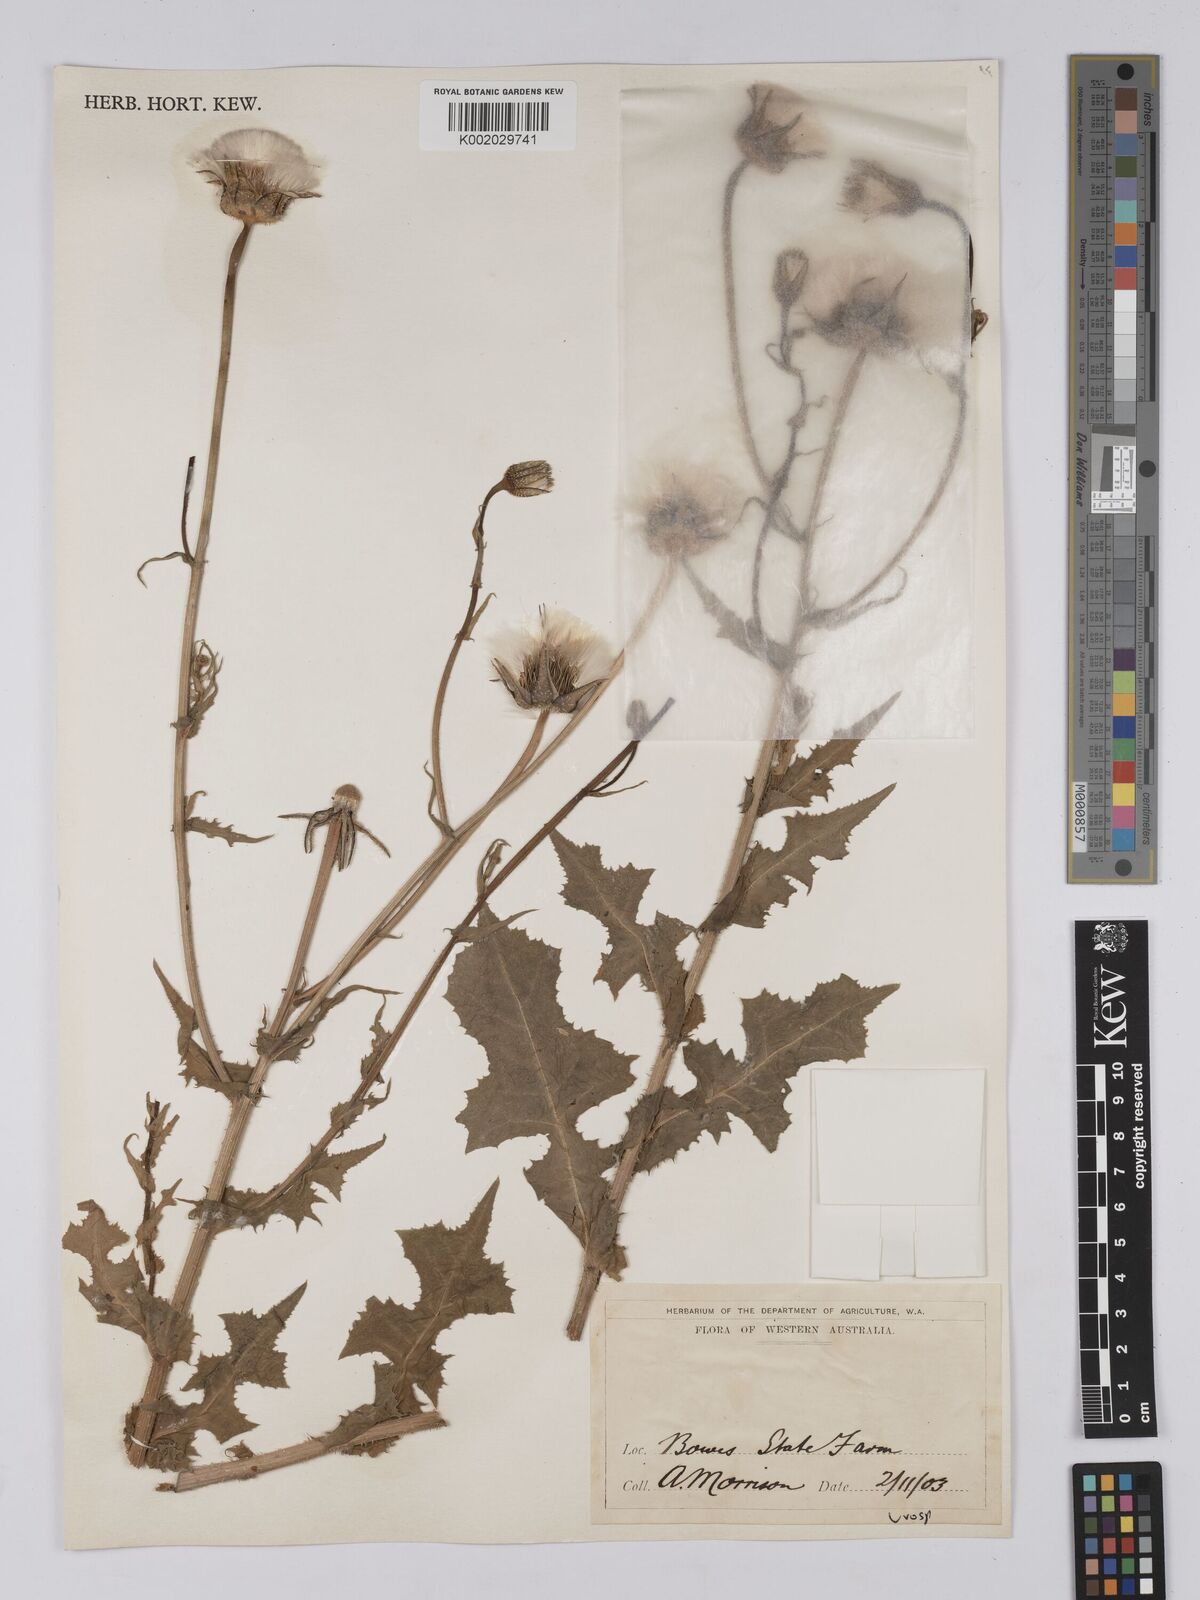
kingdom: Plantae
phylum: Tracheophyta
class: Magnoliopsida
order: Asterales
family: Asteraceae
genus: Urospermum
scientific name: Urospermum picroides
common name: False hawkbit
